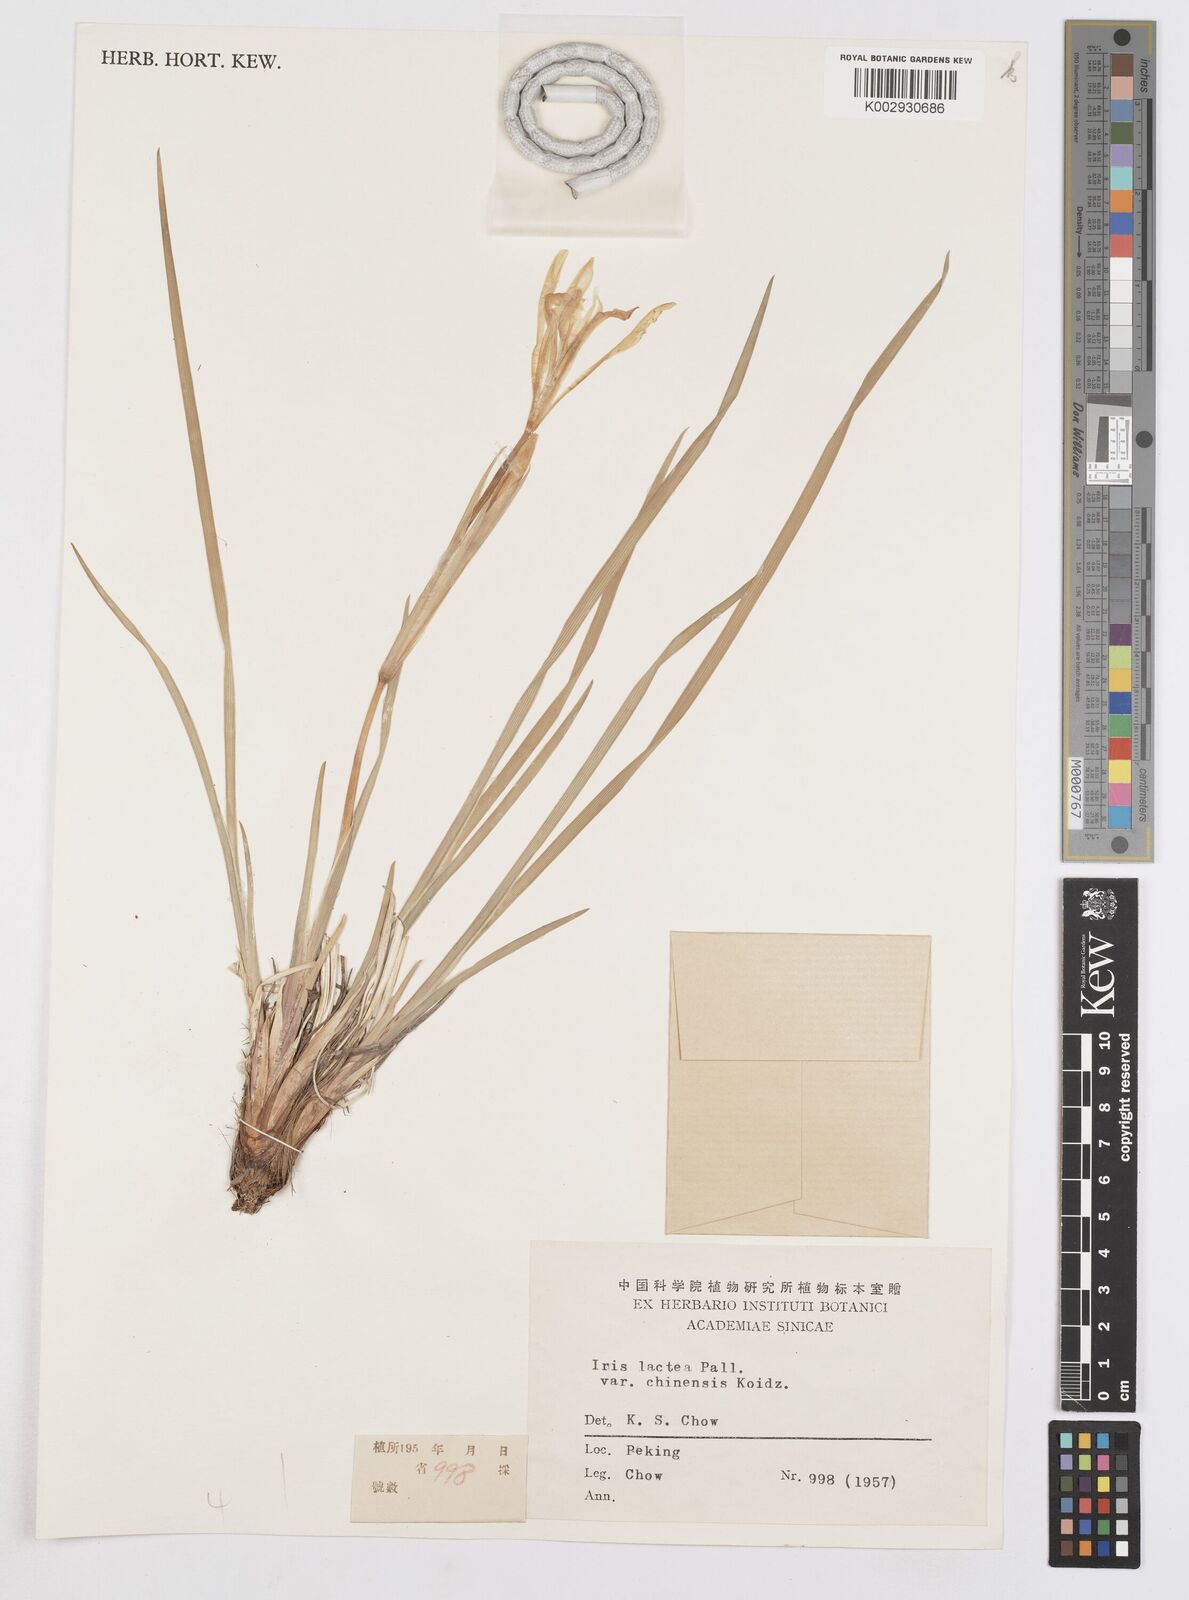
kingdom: Plantae
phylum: Tracheophyta
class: Liliopsida
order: Asparagales
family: Iridaceae
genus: Iris
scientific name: Iris ensata
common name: Beaked iris
